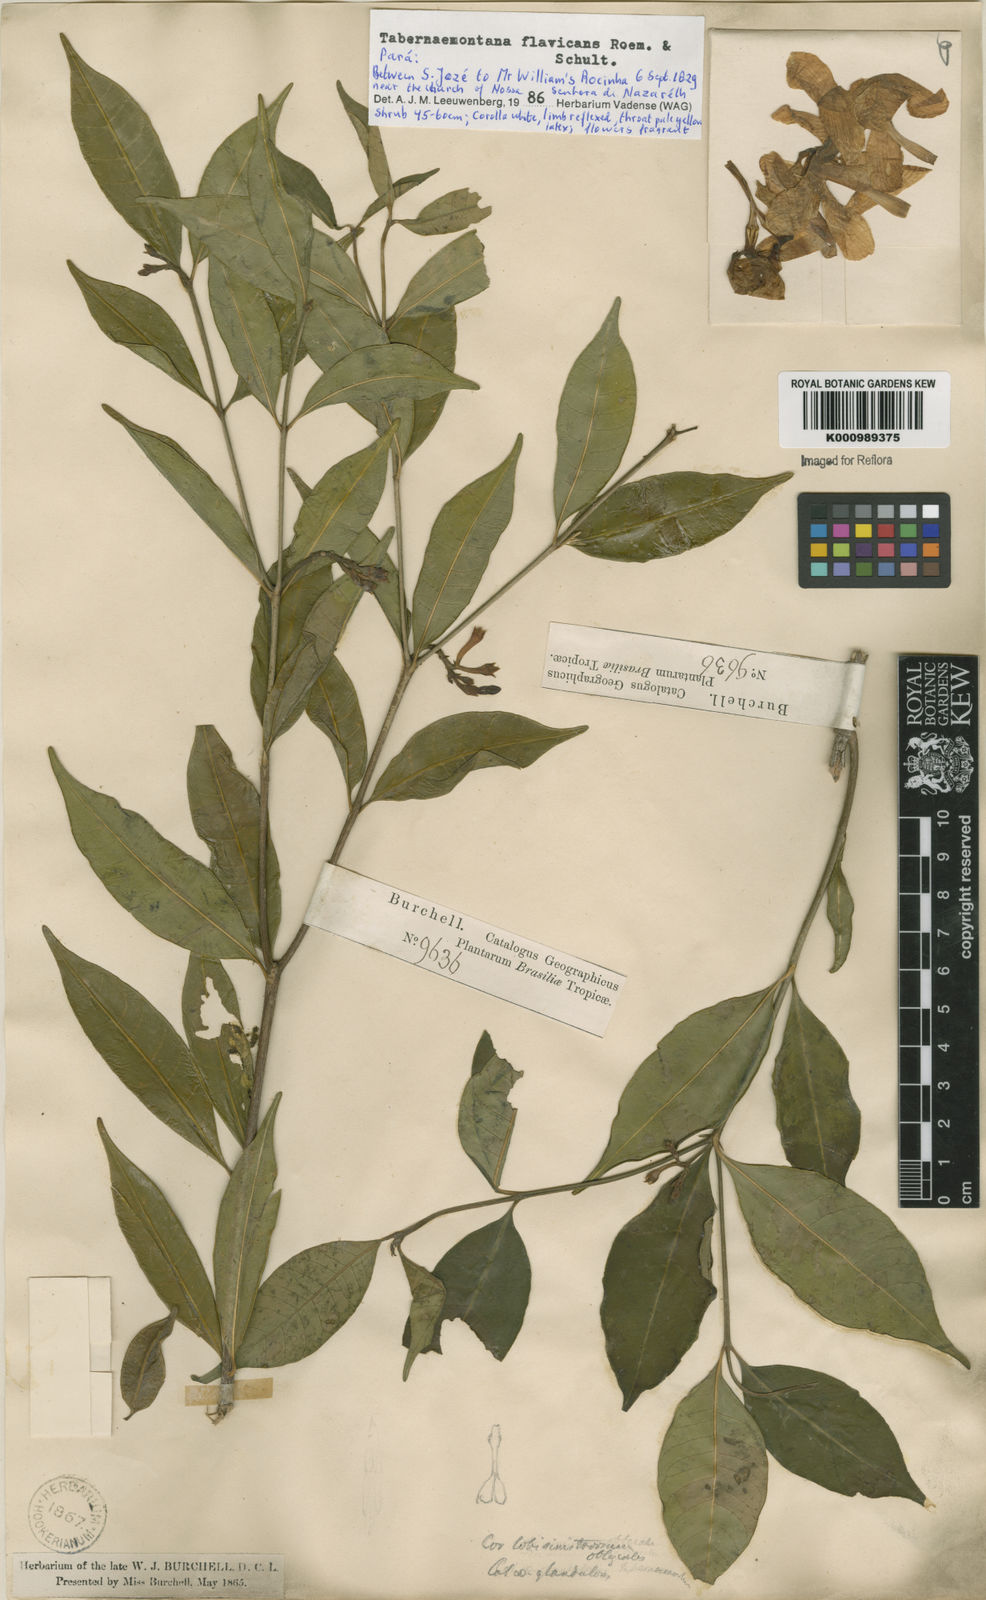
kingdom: Plantae
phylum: Tracheophyta
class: Magnoliopsida
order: Gentianales
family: Apocynaceae
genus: Tabernaemontana
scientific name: Tabernaemontana flavicans
